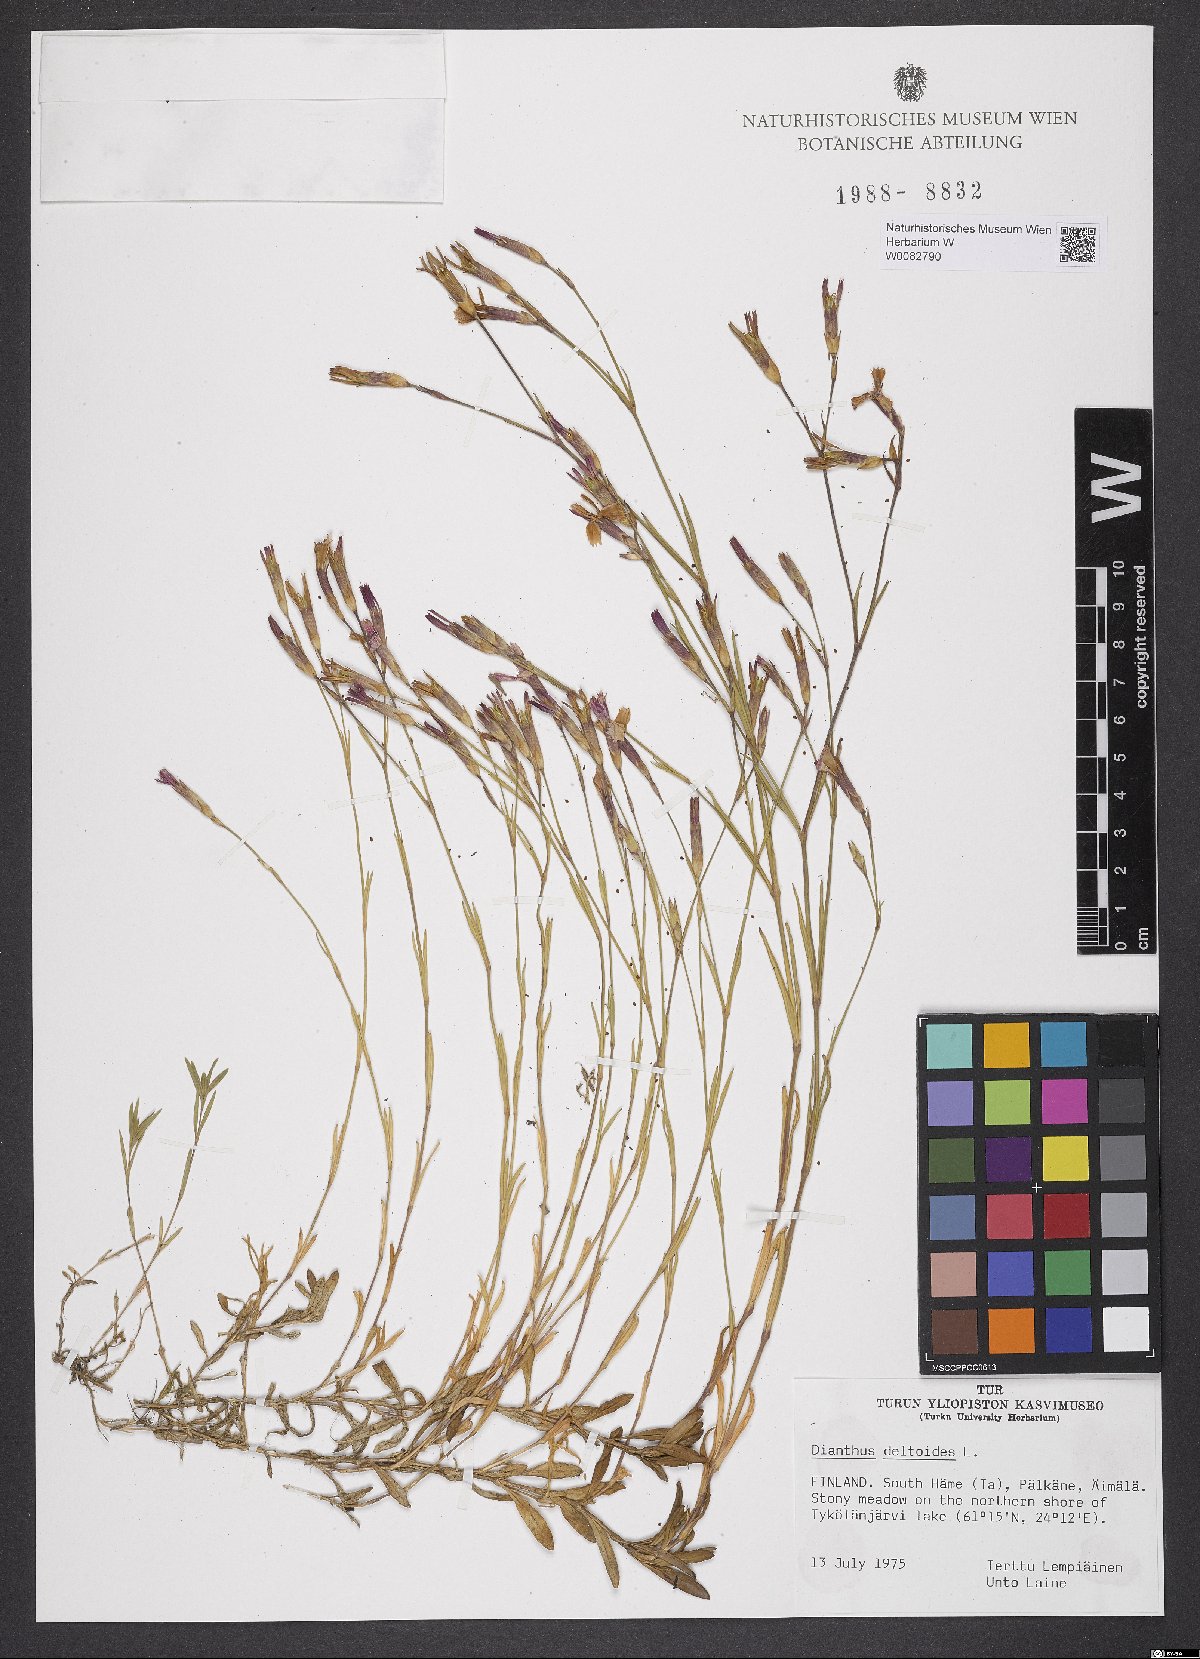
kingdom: Plantae
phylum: Tracheophyta
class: Magnoliopsida
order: Caryophyllales
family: Caryophyllaceae
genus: Dianthus
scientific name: Dianthus deltoides
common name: Maiden pink
